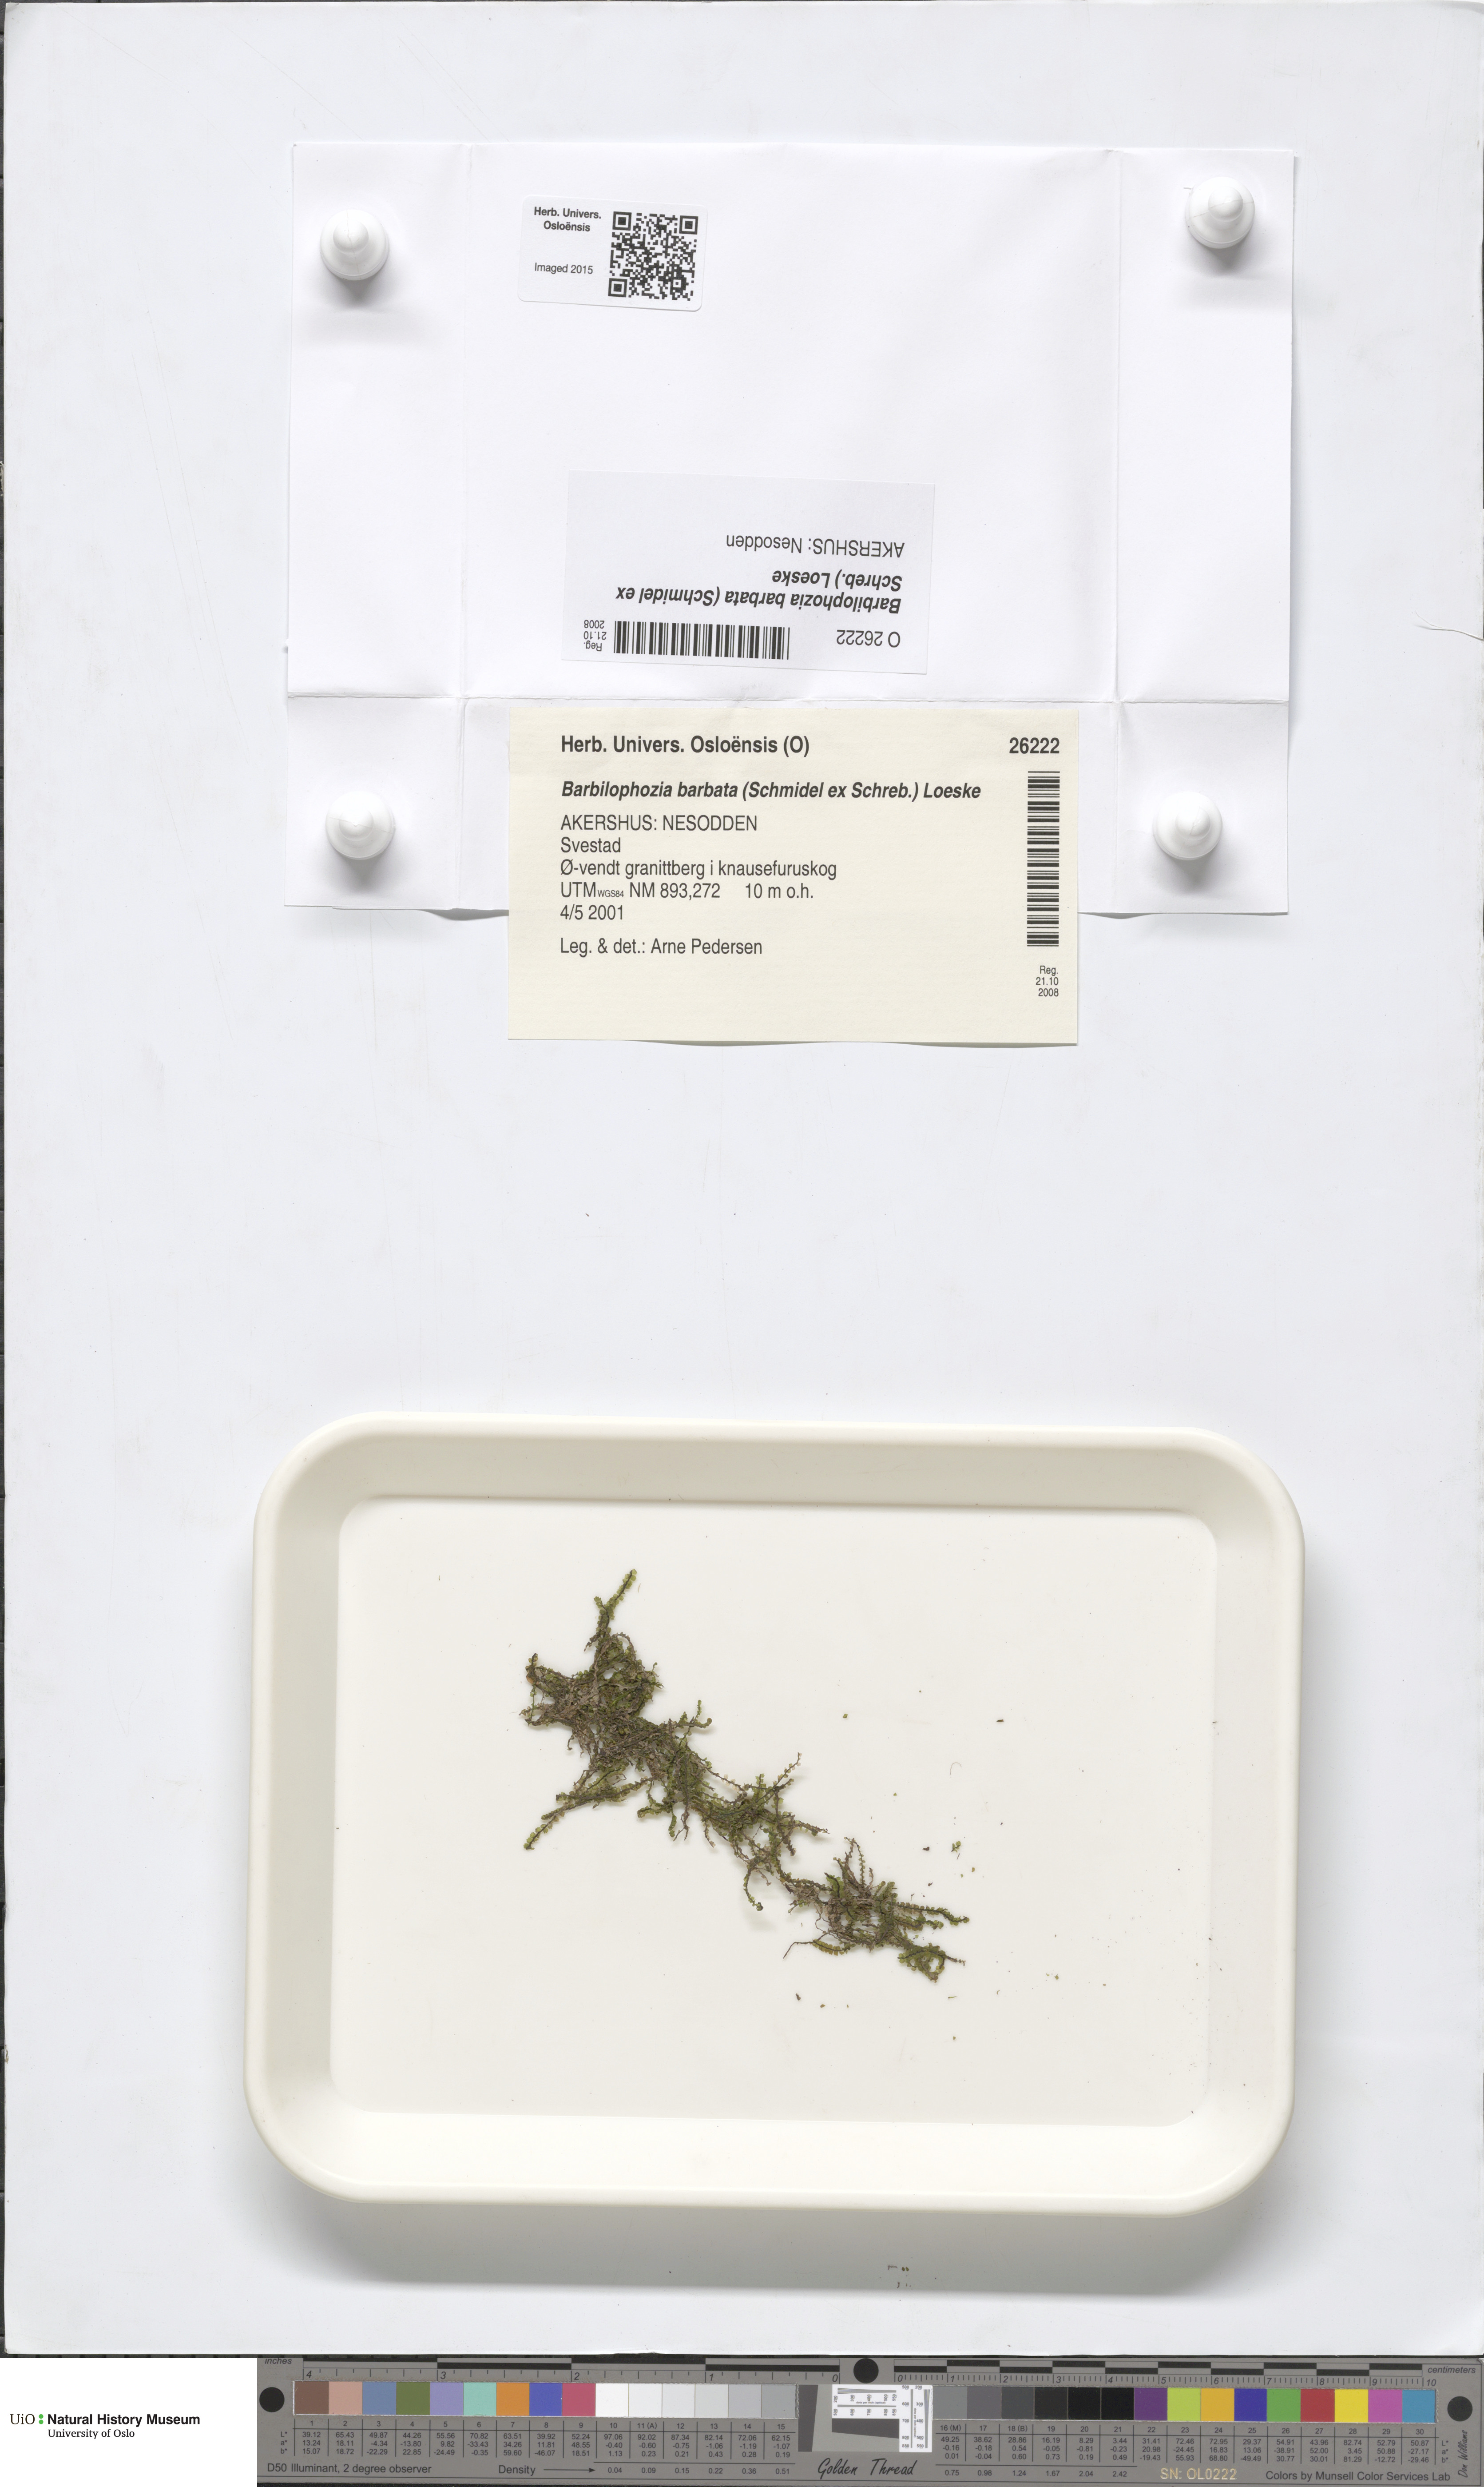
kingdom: Plantae
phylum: Marchantiophyta
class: Jungermanniopsida
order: Jungermanniales
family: Anastrophyllaceae
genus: Barbilophozia
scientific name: Barbilophozia barbata
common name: Bearded pawwort
